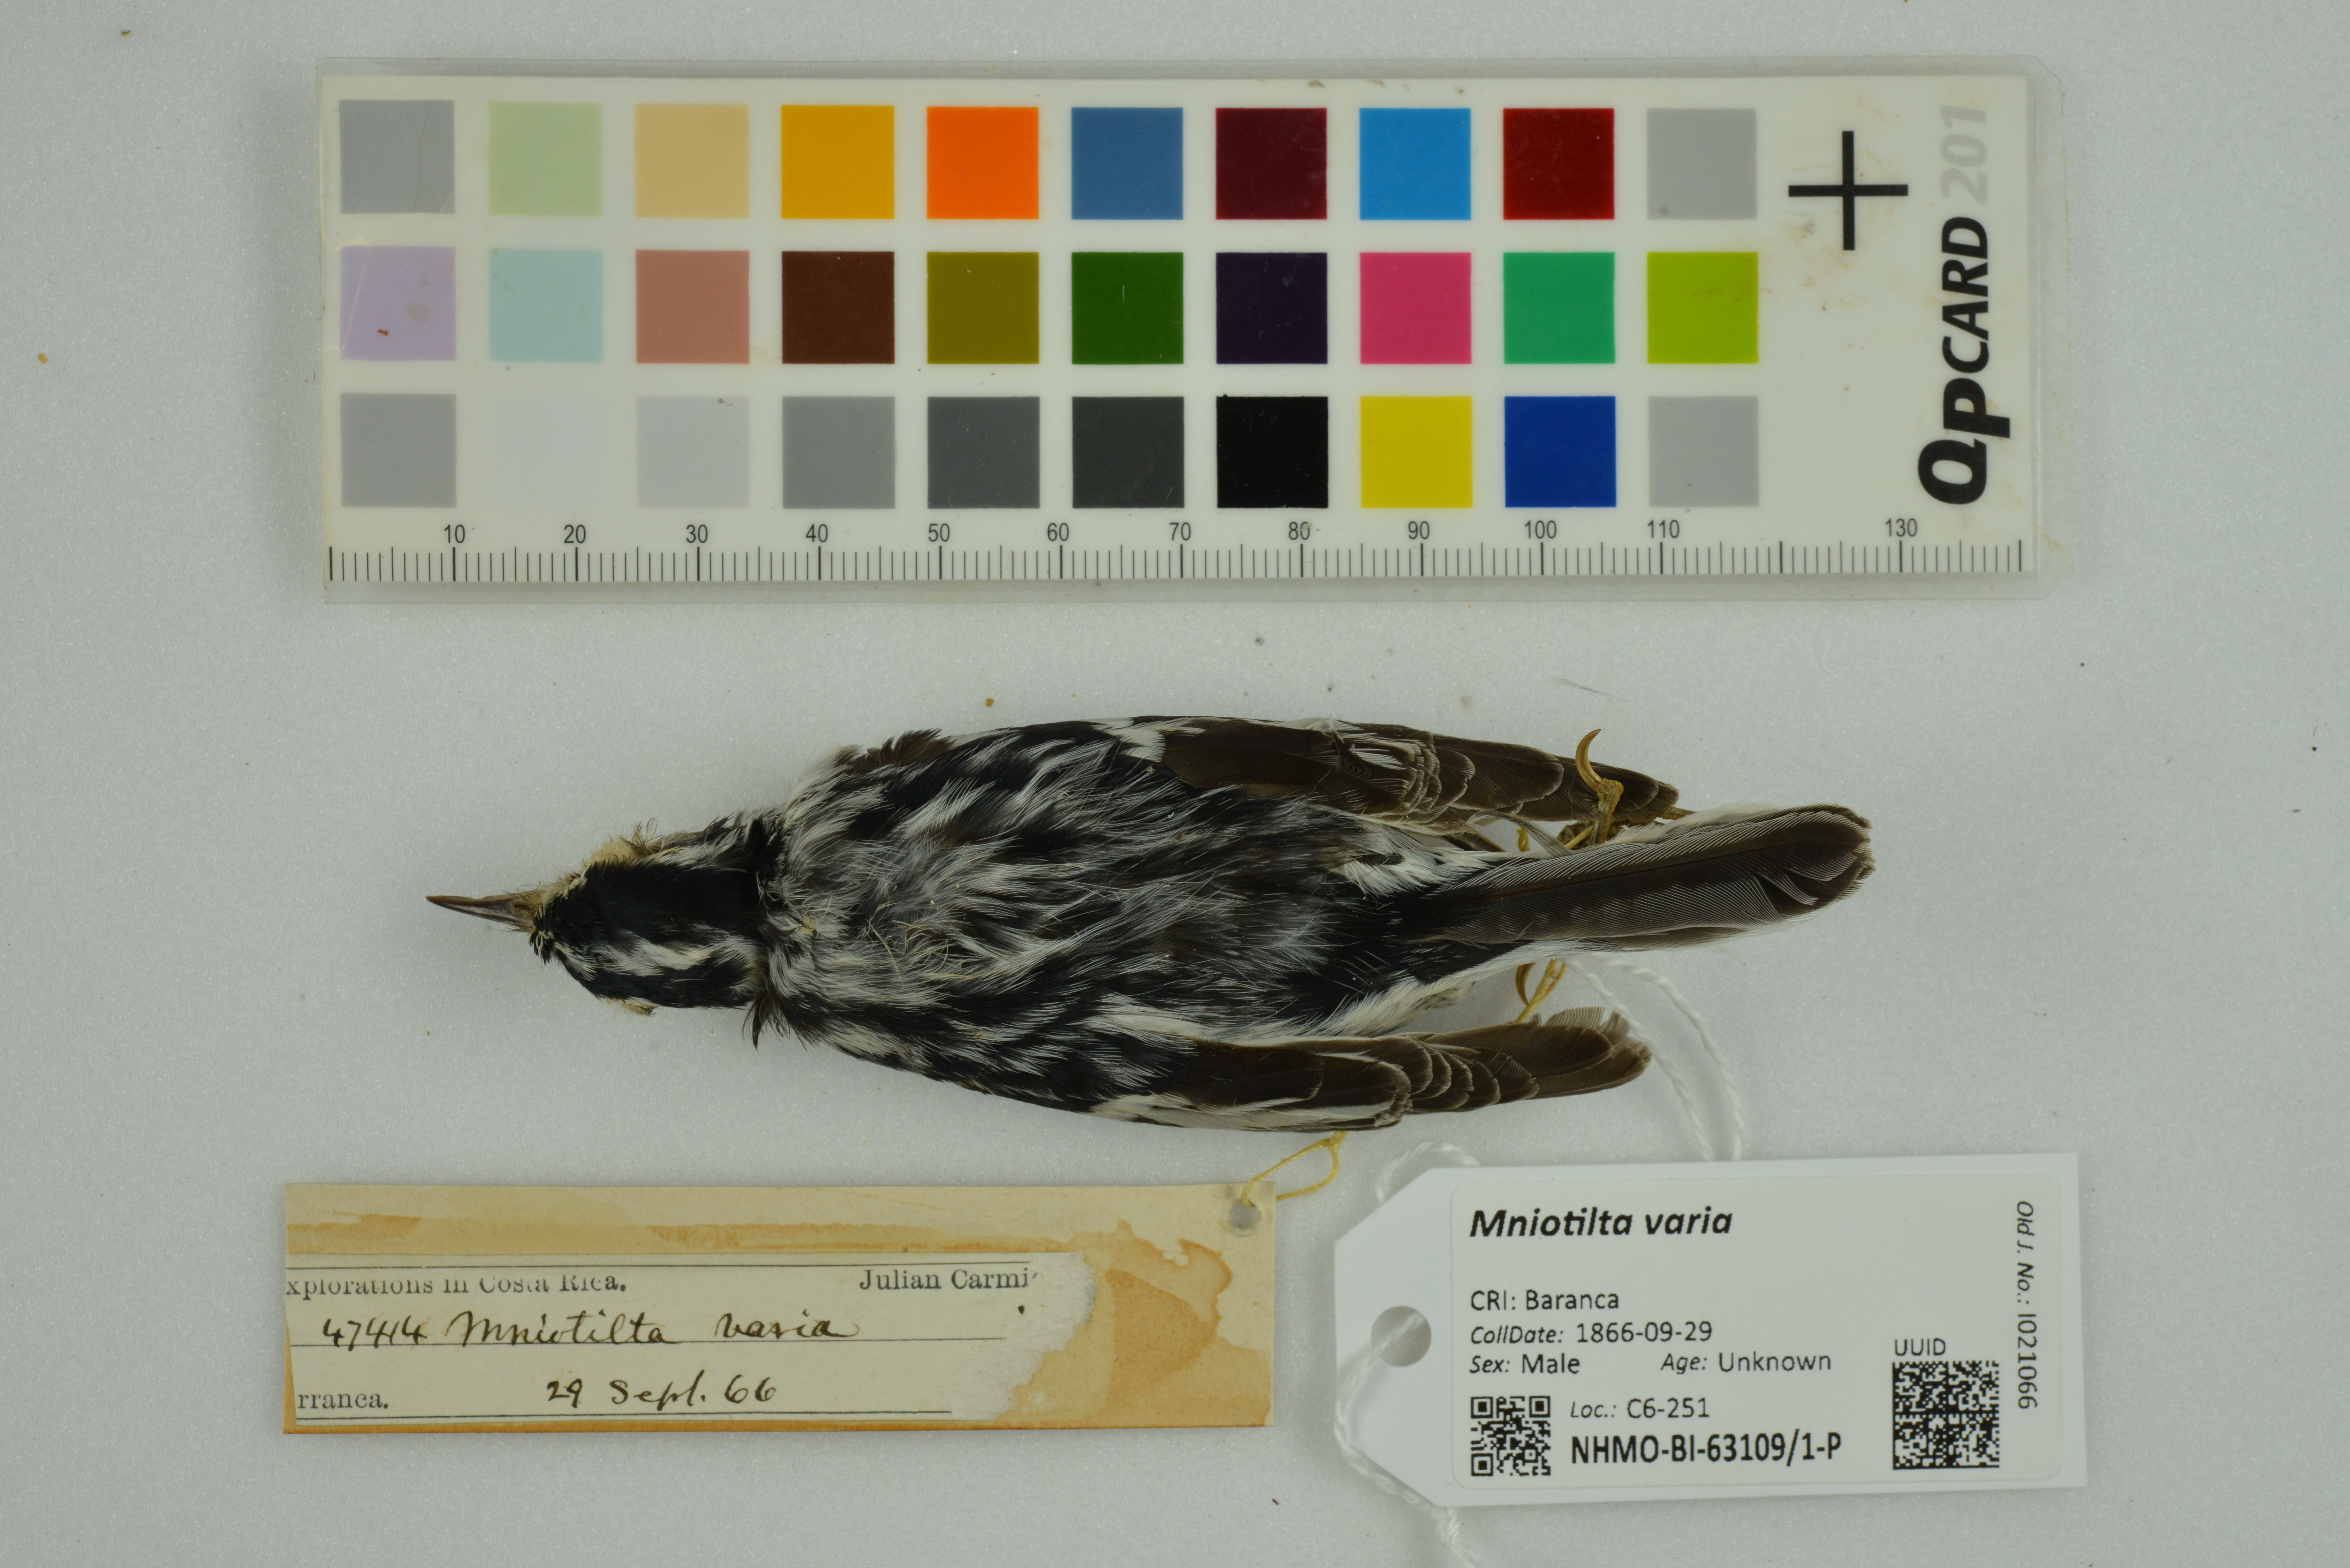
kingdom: Animalia
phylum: Chordata
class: Aves
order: Passeriformes
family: Parulidae
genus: Mniotilta
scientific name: Mniotilta varia
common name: Black-and-white warbler
